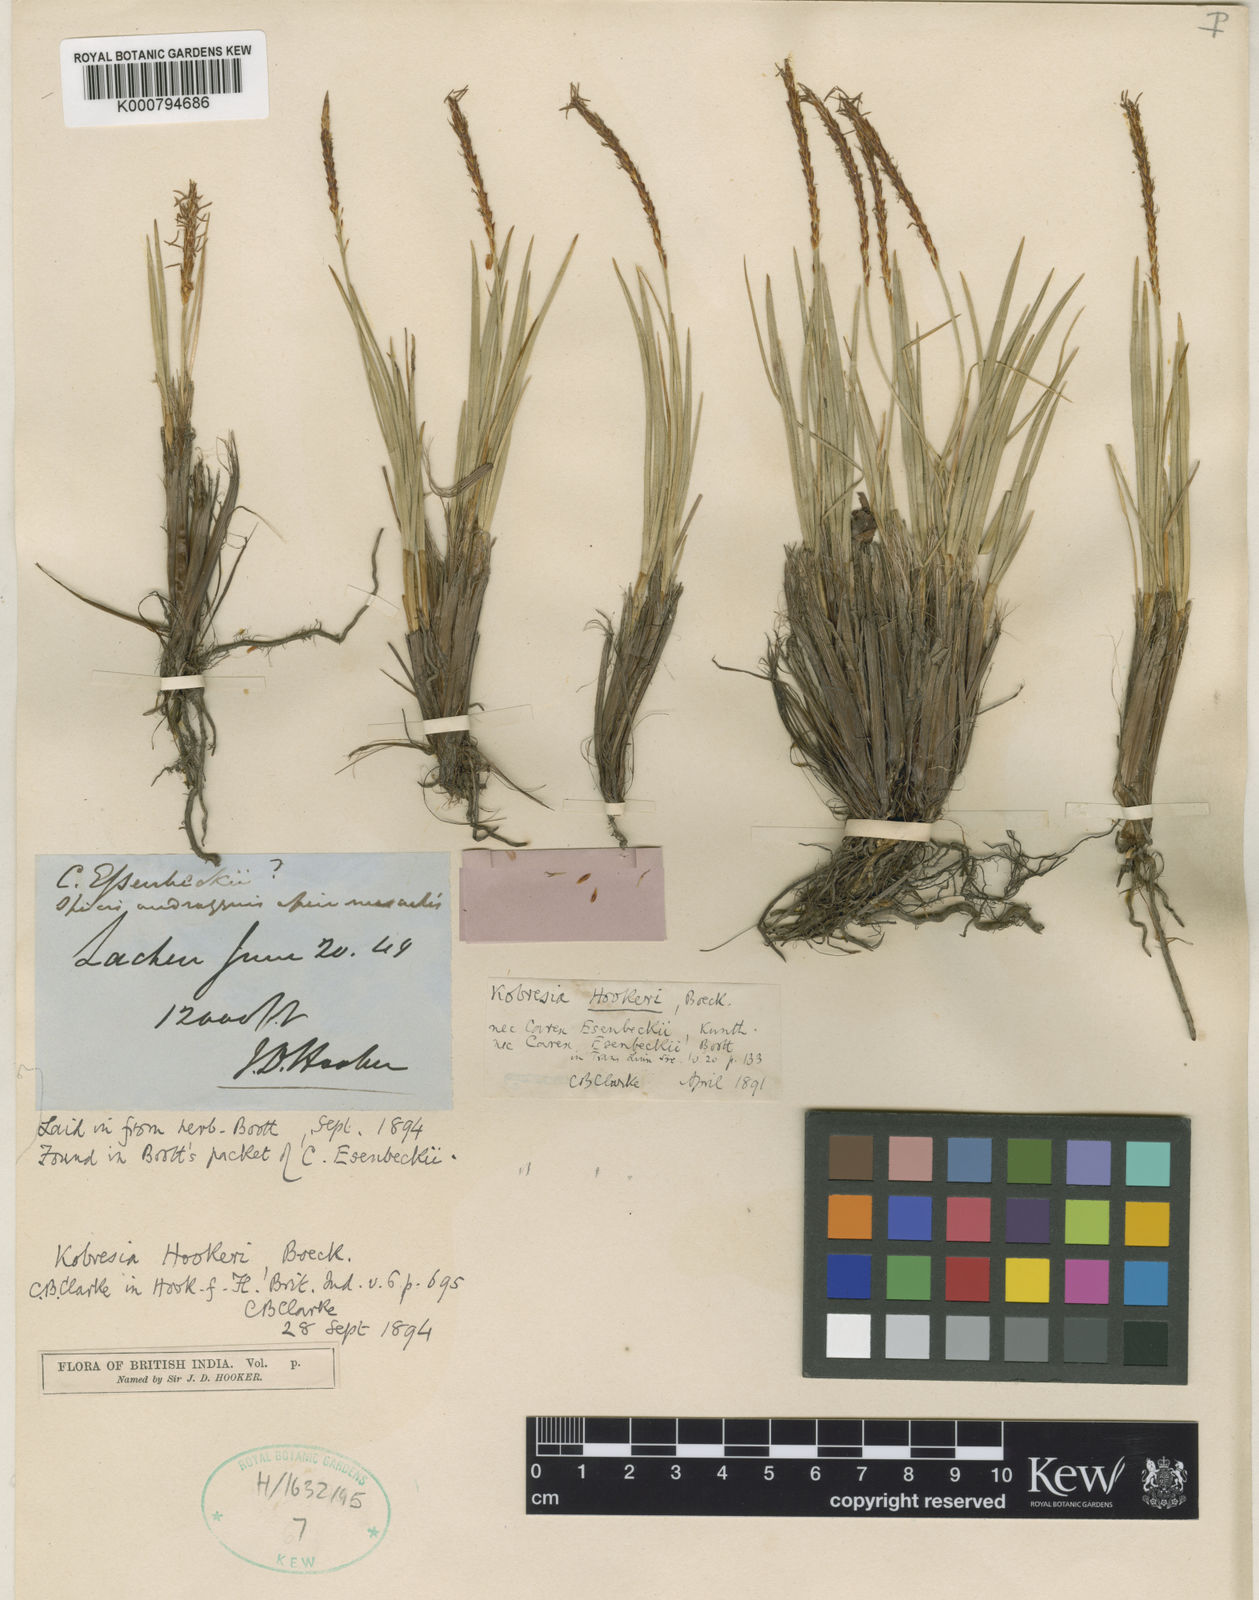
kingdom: Plantae
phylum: Tracheophyta
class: Liliopsida
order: Poales
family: Cyperaceae
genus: Carex
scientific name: Carex esenbeckii
